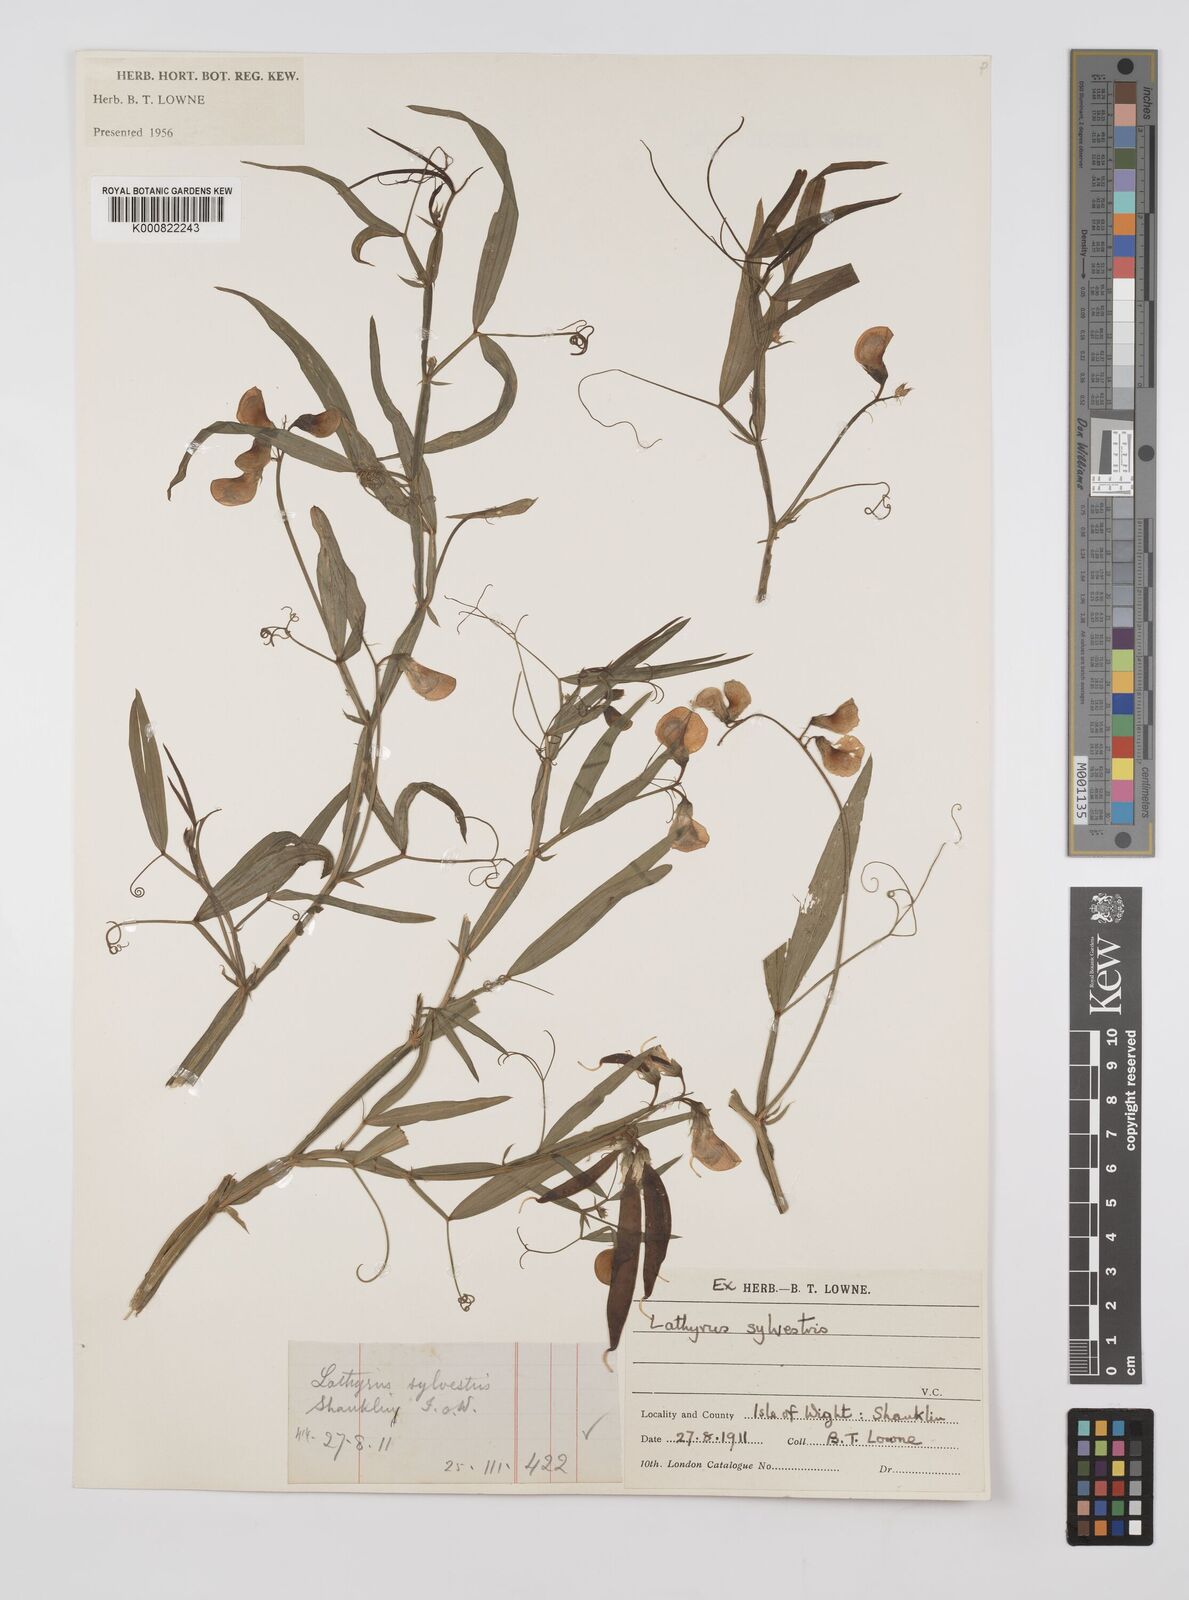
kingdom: Plantae
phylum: Tracheophyta
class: Magnoliopsida
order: Fabales
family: Fabaceae
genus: Lathyrus
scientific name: Lathyrus sylvestris
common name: Flat pea
